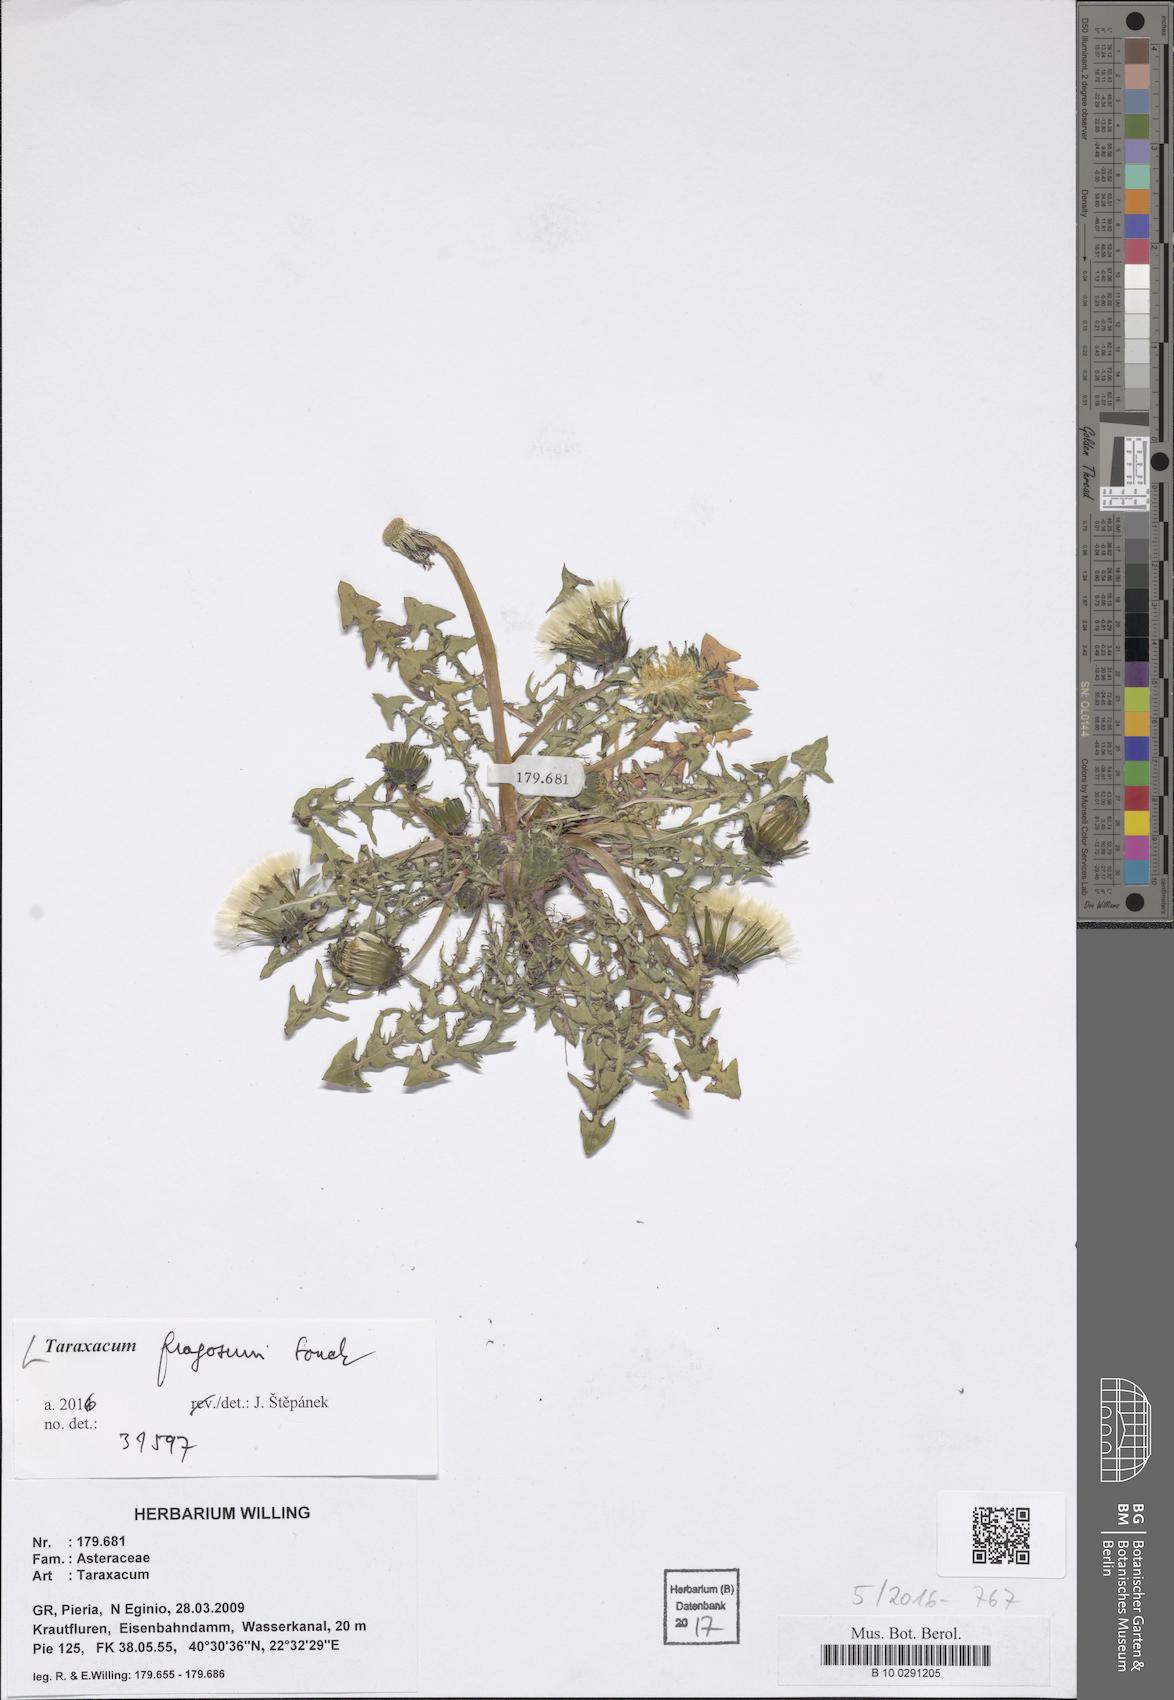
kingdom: Plantae
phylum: Tracheophyta
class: Magnoliopsida
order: Asterales
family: Asteraceae
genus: Taraxacum
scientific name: Taraxacum fragosum
